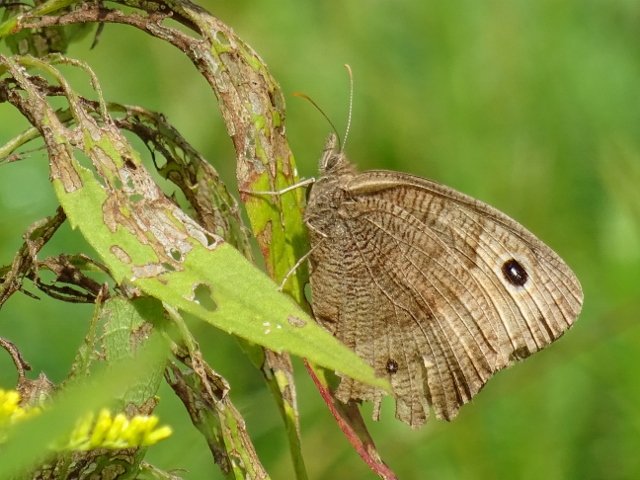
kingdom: Animalia
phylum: Arthropoda
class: Insecta
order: Lepidoptera
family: Nymphalidae
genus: Cercyonis
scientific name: Cercyonis pegala
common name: Common Wood-Nymph
